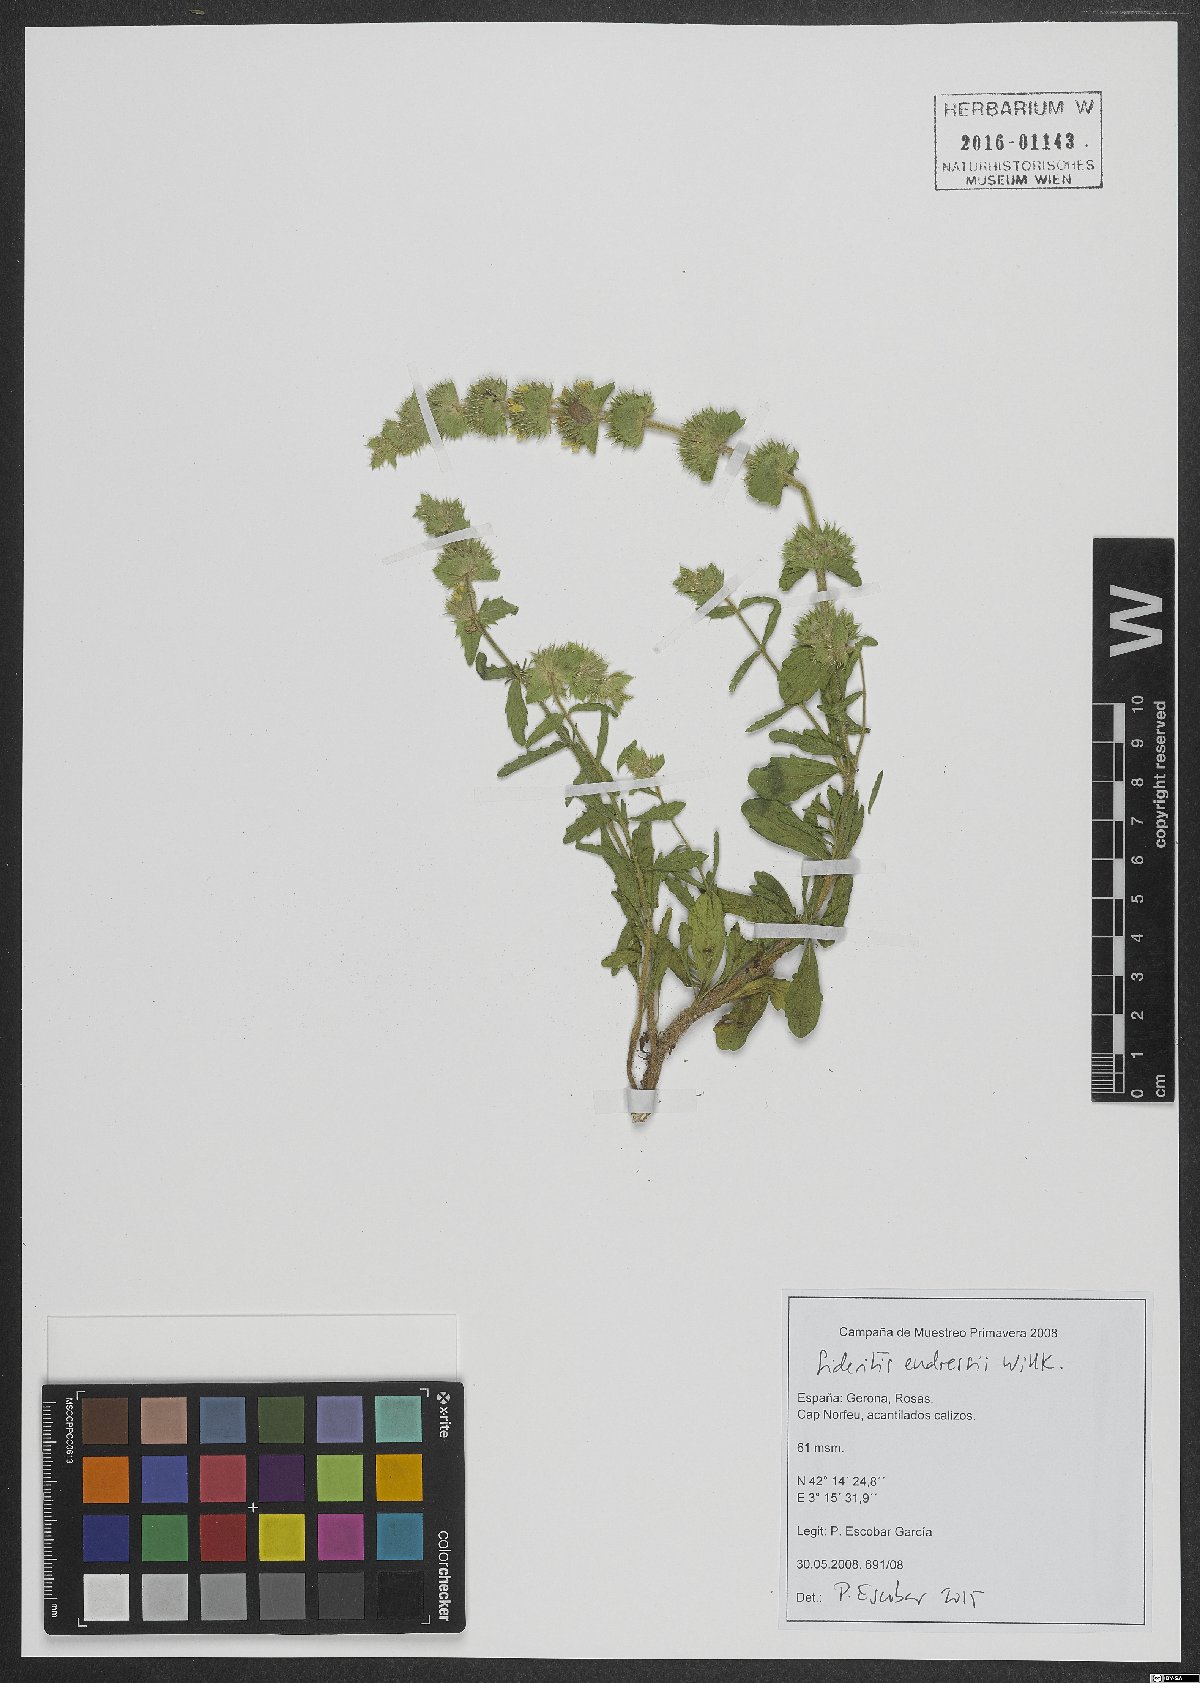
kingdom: Plantae
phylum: Tracheophyta
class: Magnoliopsida
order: Lamiales
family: Lamiaceae
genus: Sideritis
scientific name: Sideritis endressii
